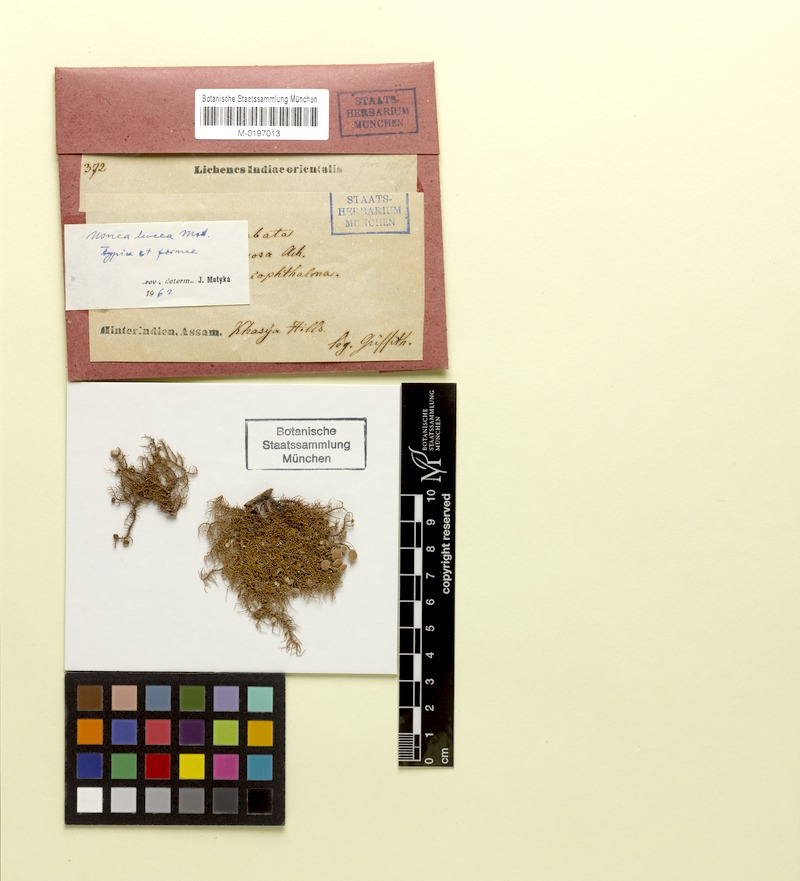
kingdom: Fungi
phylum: Ascomycota
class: Lecanoromycetes
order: Lecanorales
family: Parmeliaceae
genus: Usnea
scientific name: Usnea lutea
